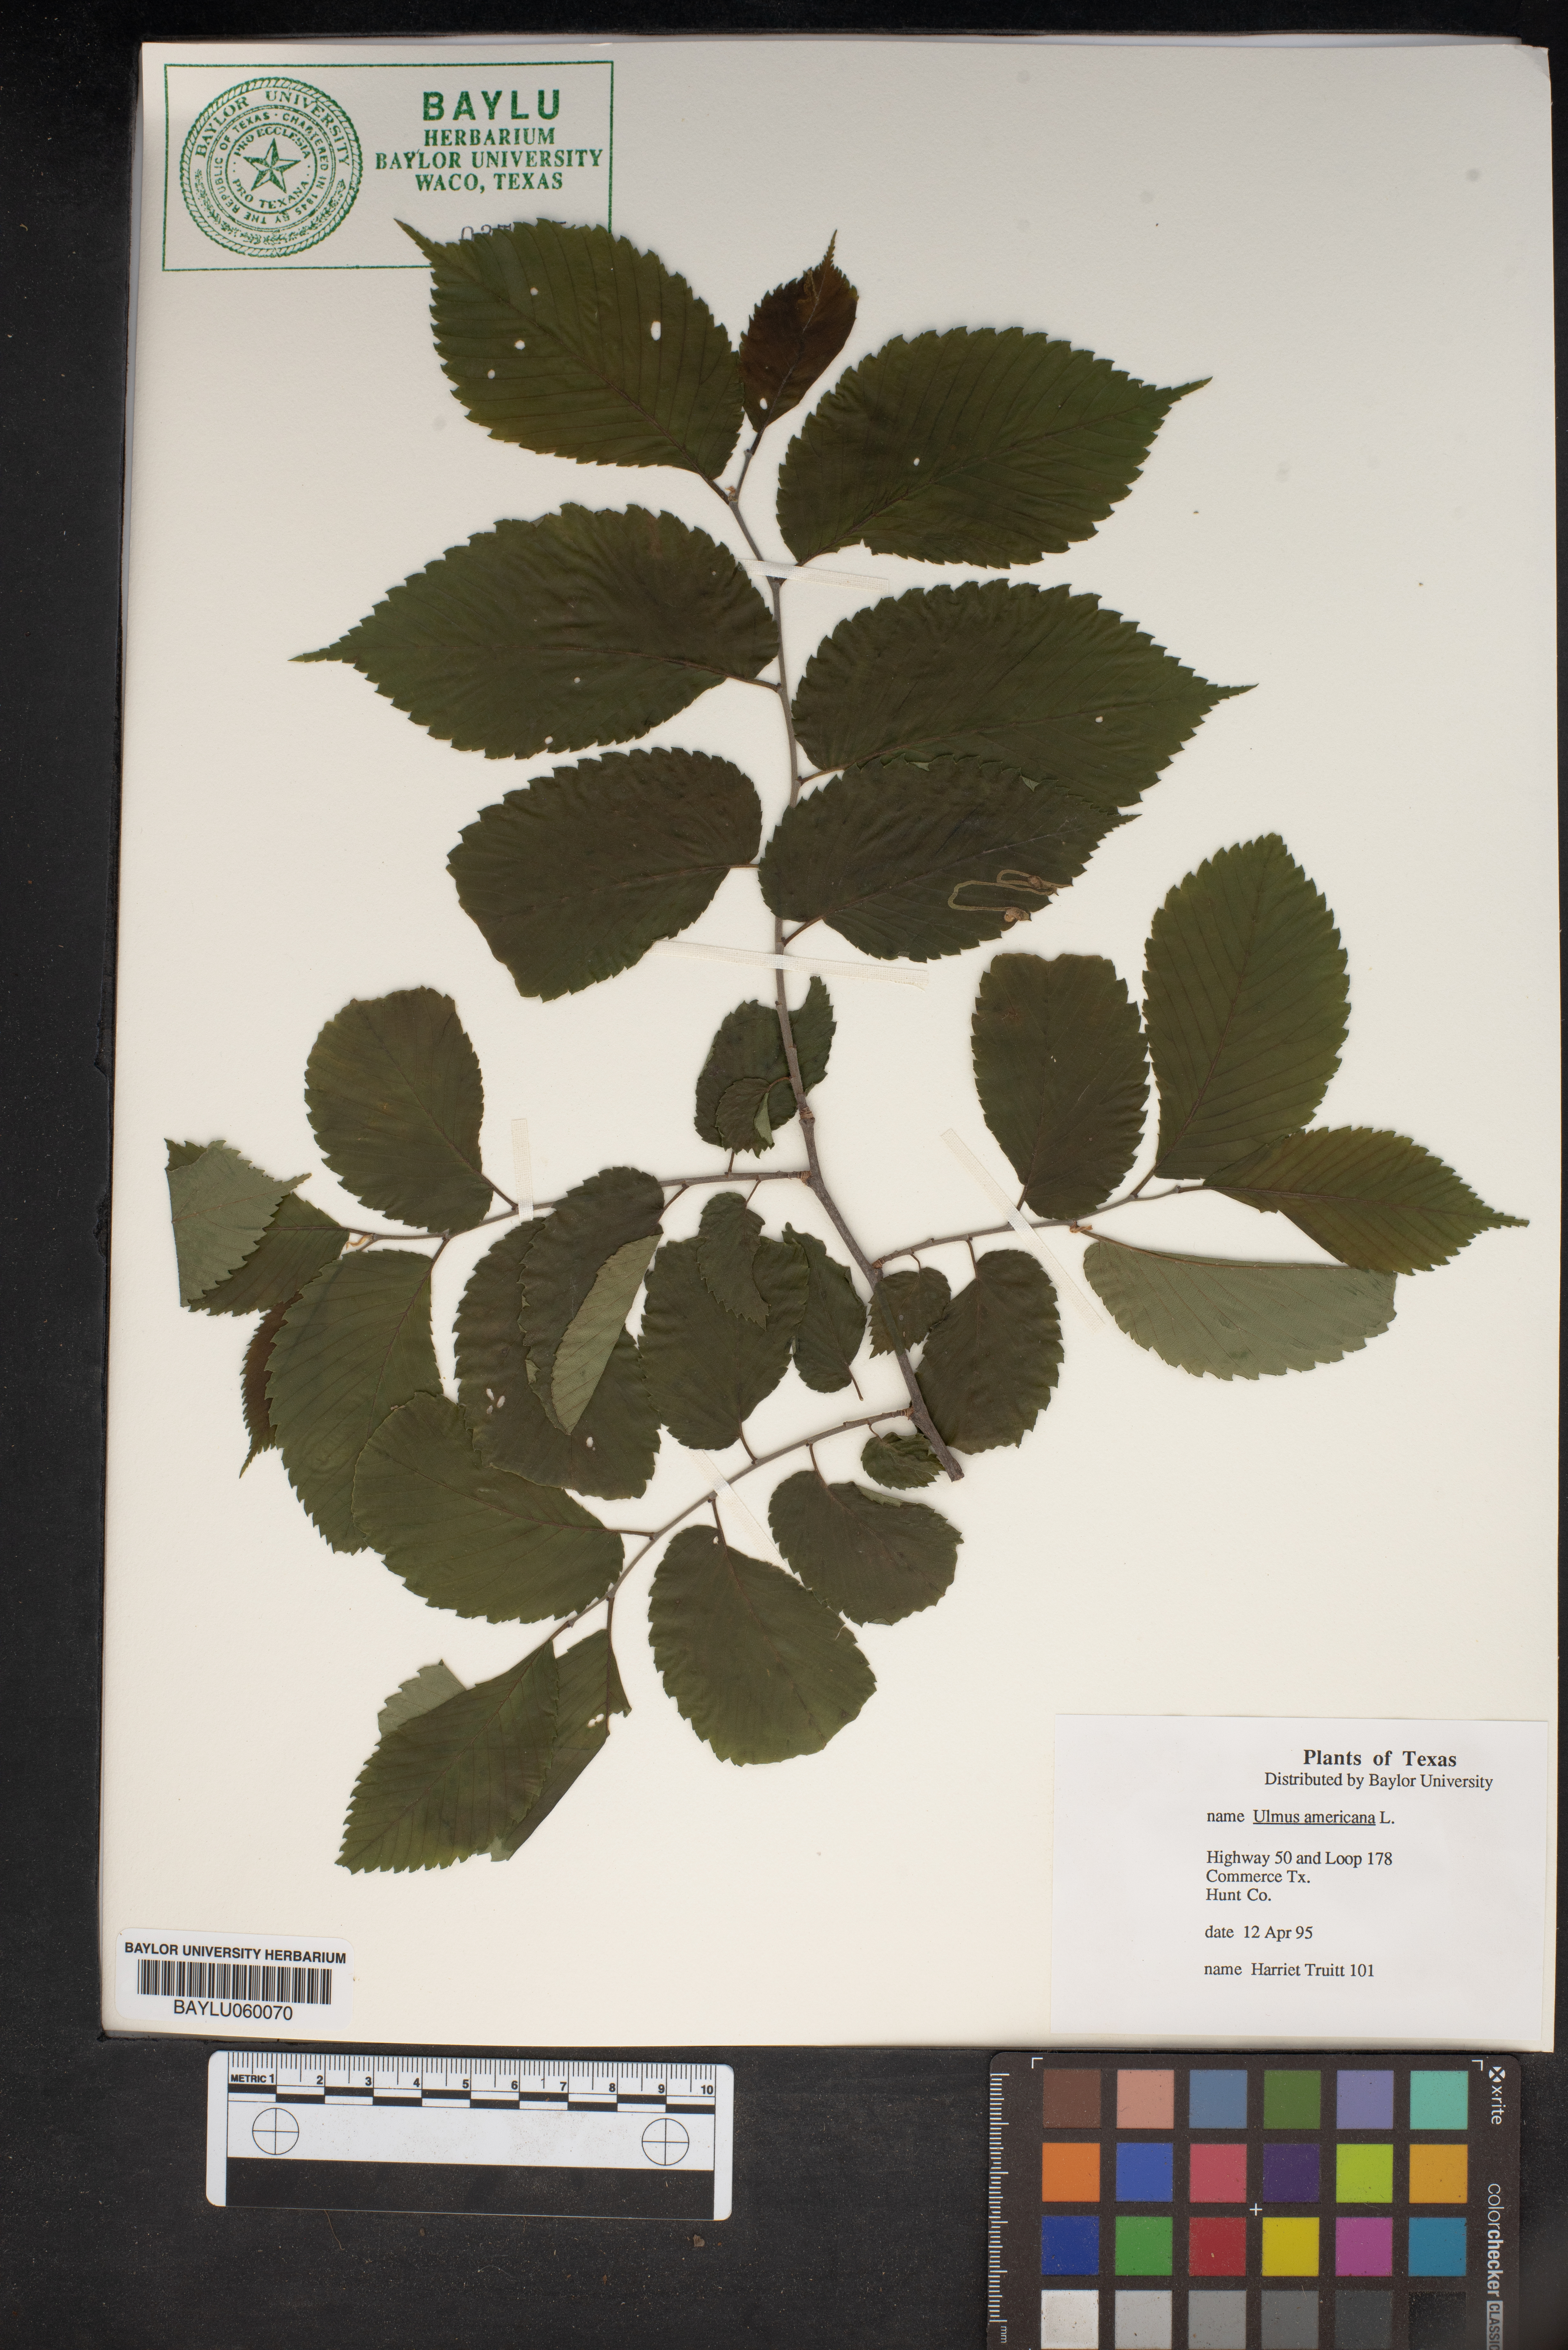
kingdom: Plantae
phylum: Tracheophyta
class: Magnoliopsida
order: Rosales
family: Ulmaceae
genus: Ulmus
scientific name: Ulmus americana
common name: American elm
